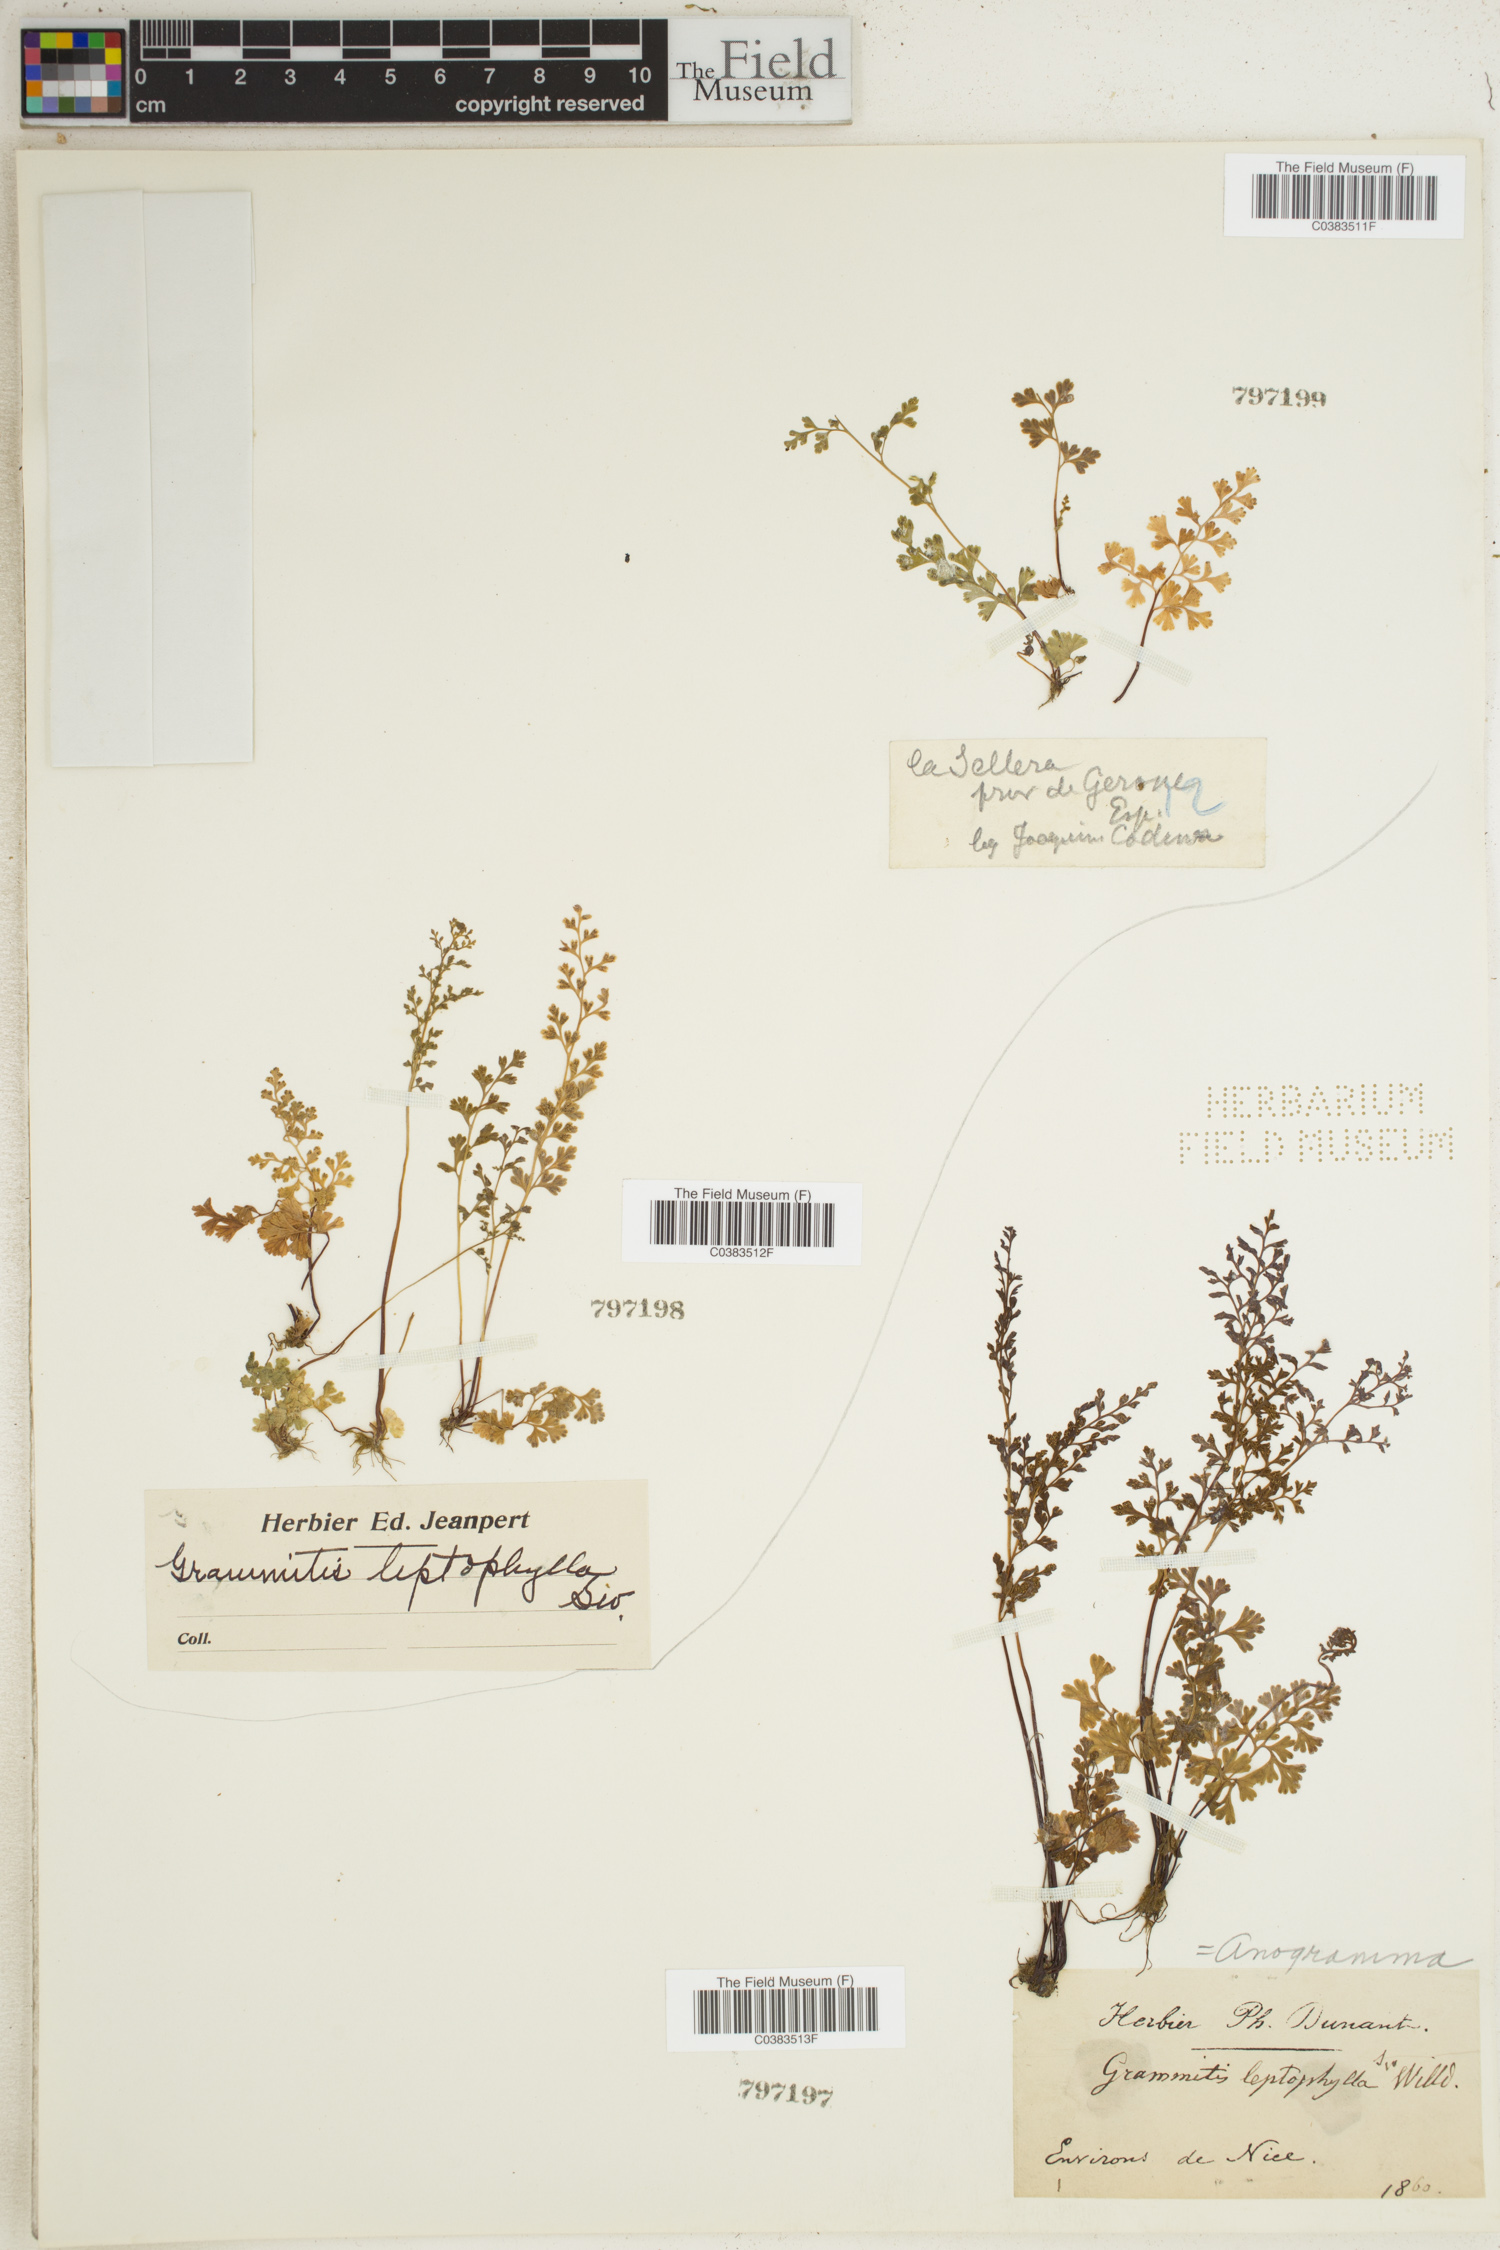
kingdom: Plantae
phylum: Tracheophyta
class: Polypodiopsida
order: Polypodiales
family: Pteridaceae
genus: Anogramma
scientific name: Anogramma leptophylla
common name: Jersey fern
